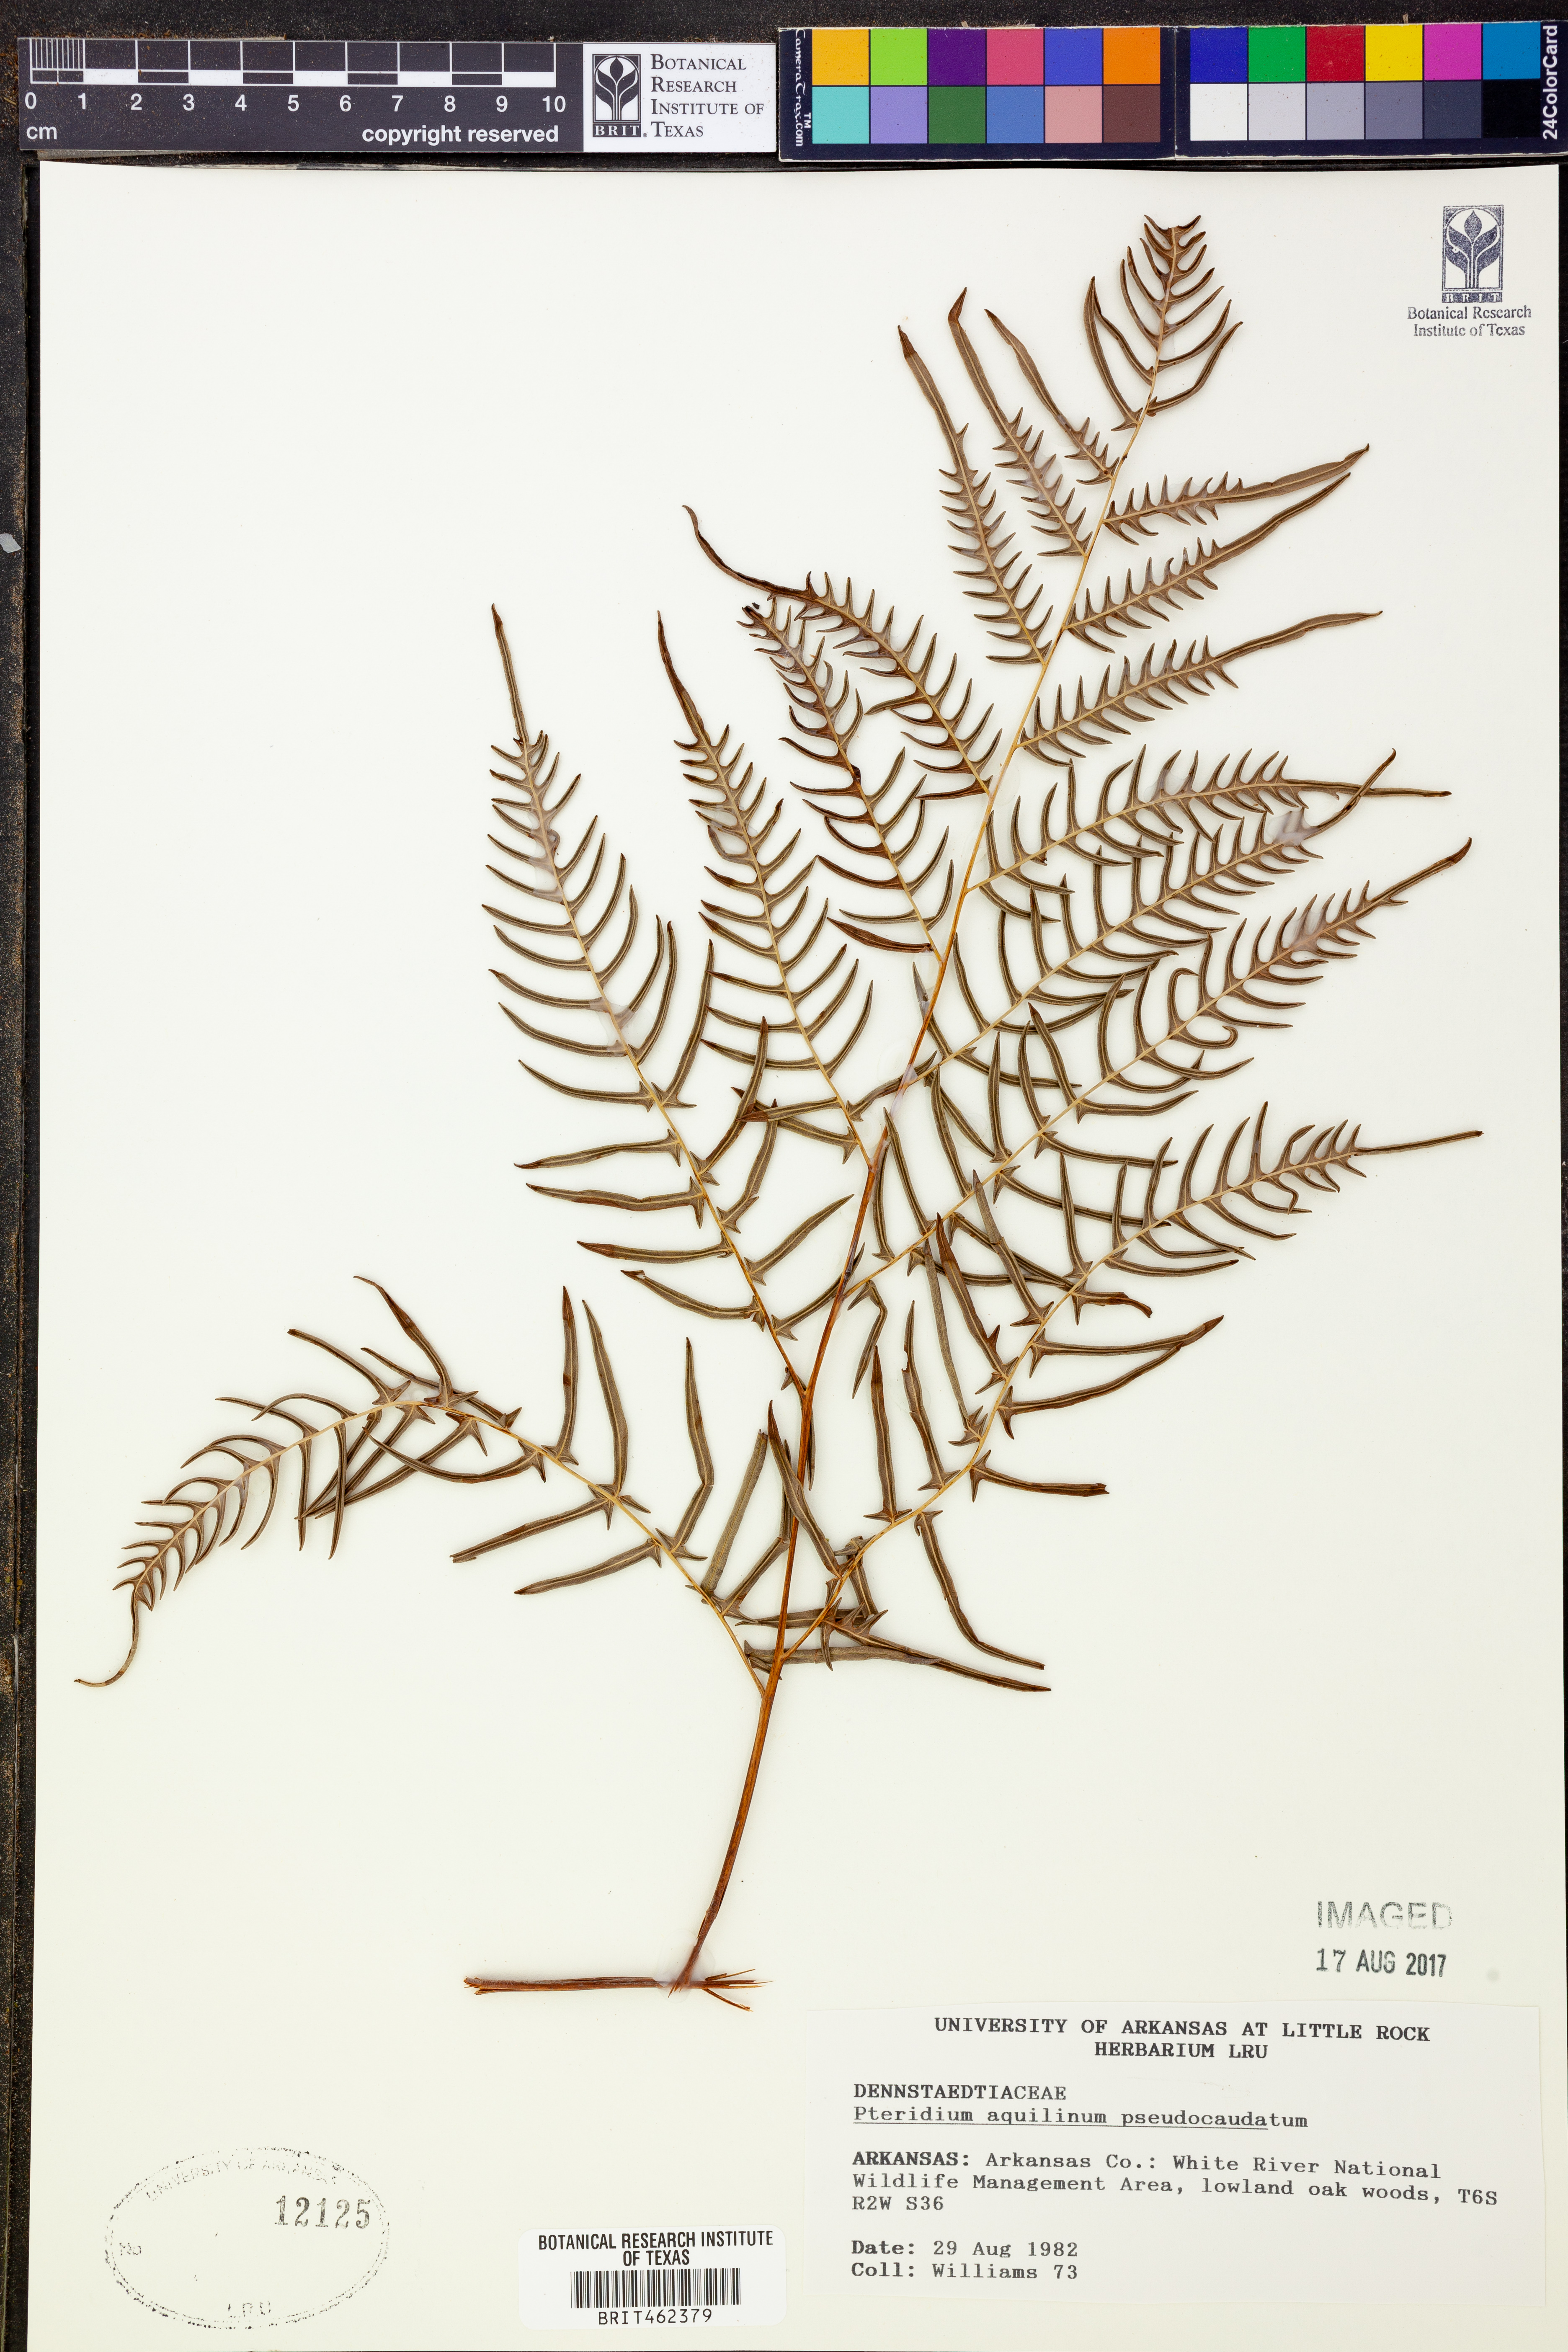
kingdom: Plantae
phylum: Tracheophyta
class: Polypodiopsida
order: Polypodiales
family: Dennstaedtiaceae
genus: Pteridium
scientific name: Pteridium aquilinum
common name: Bracken
